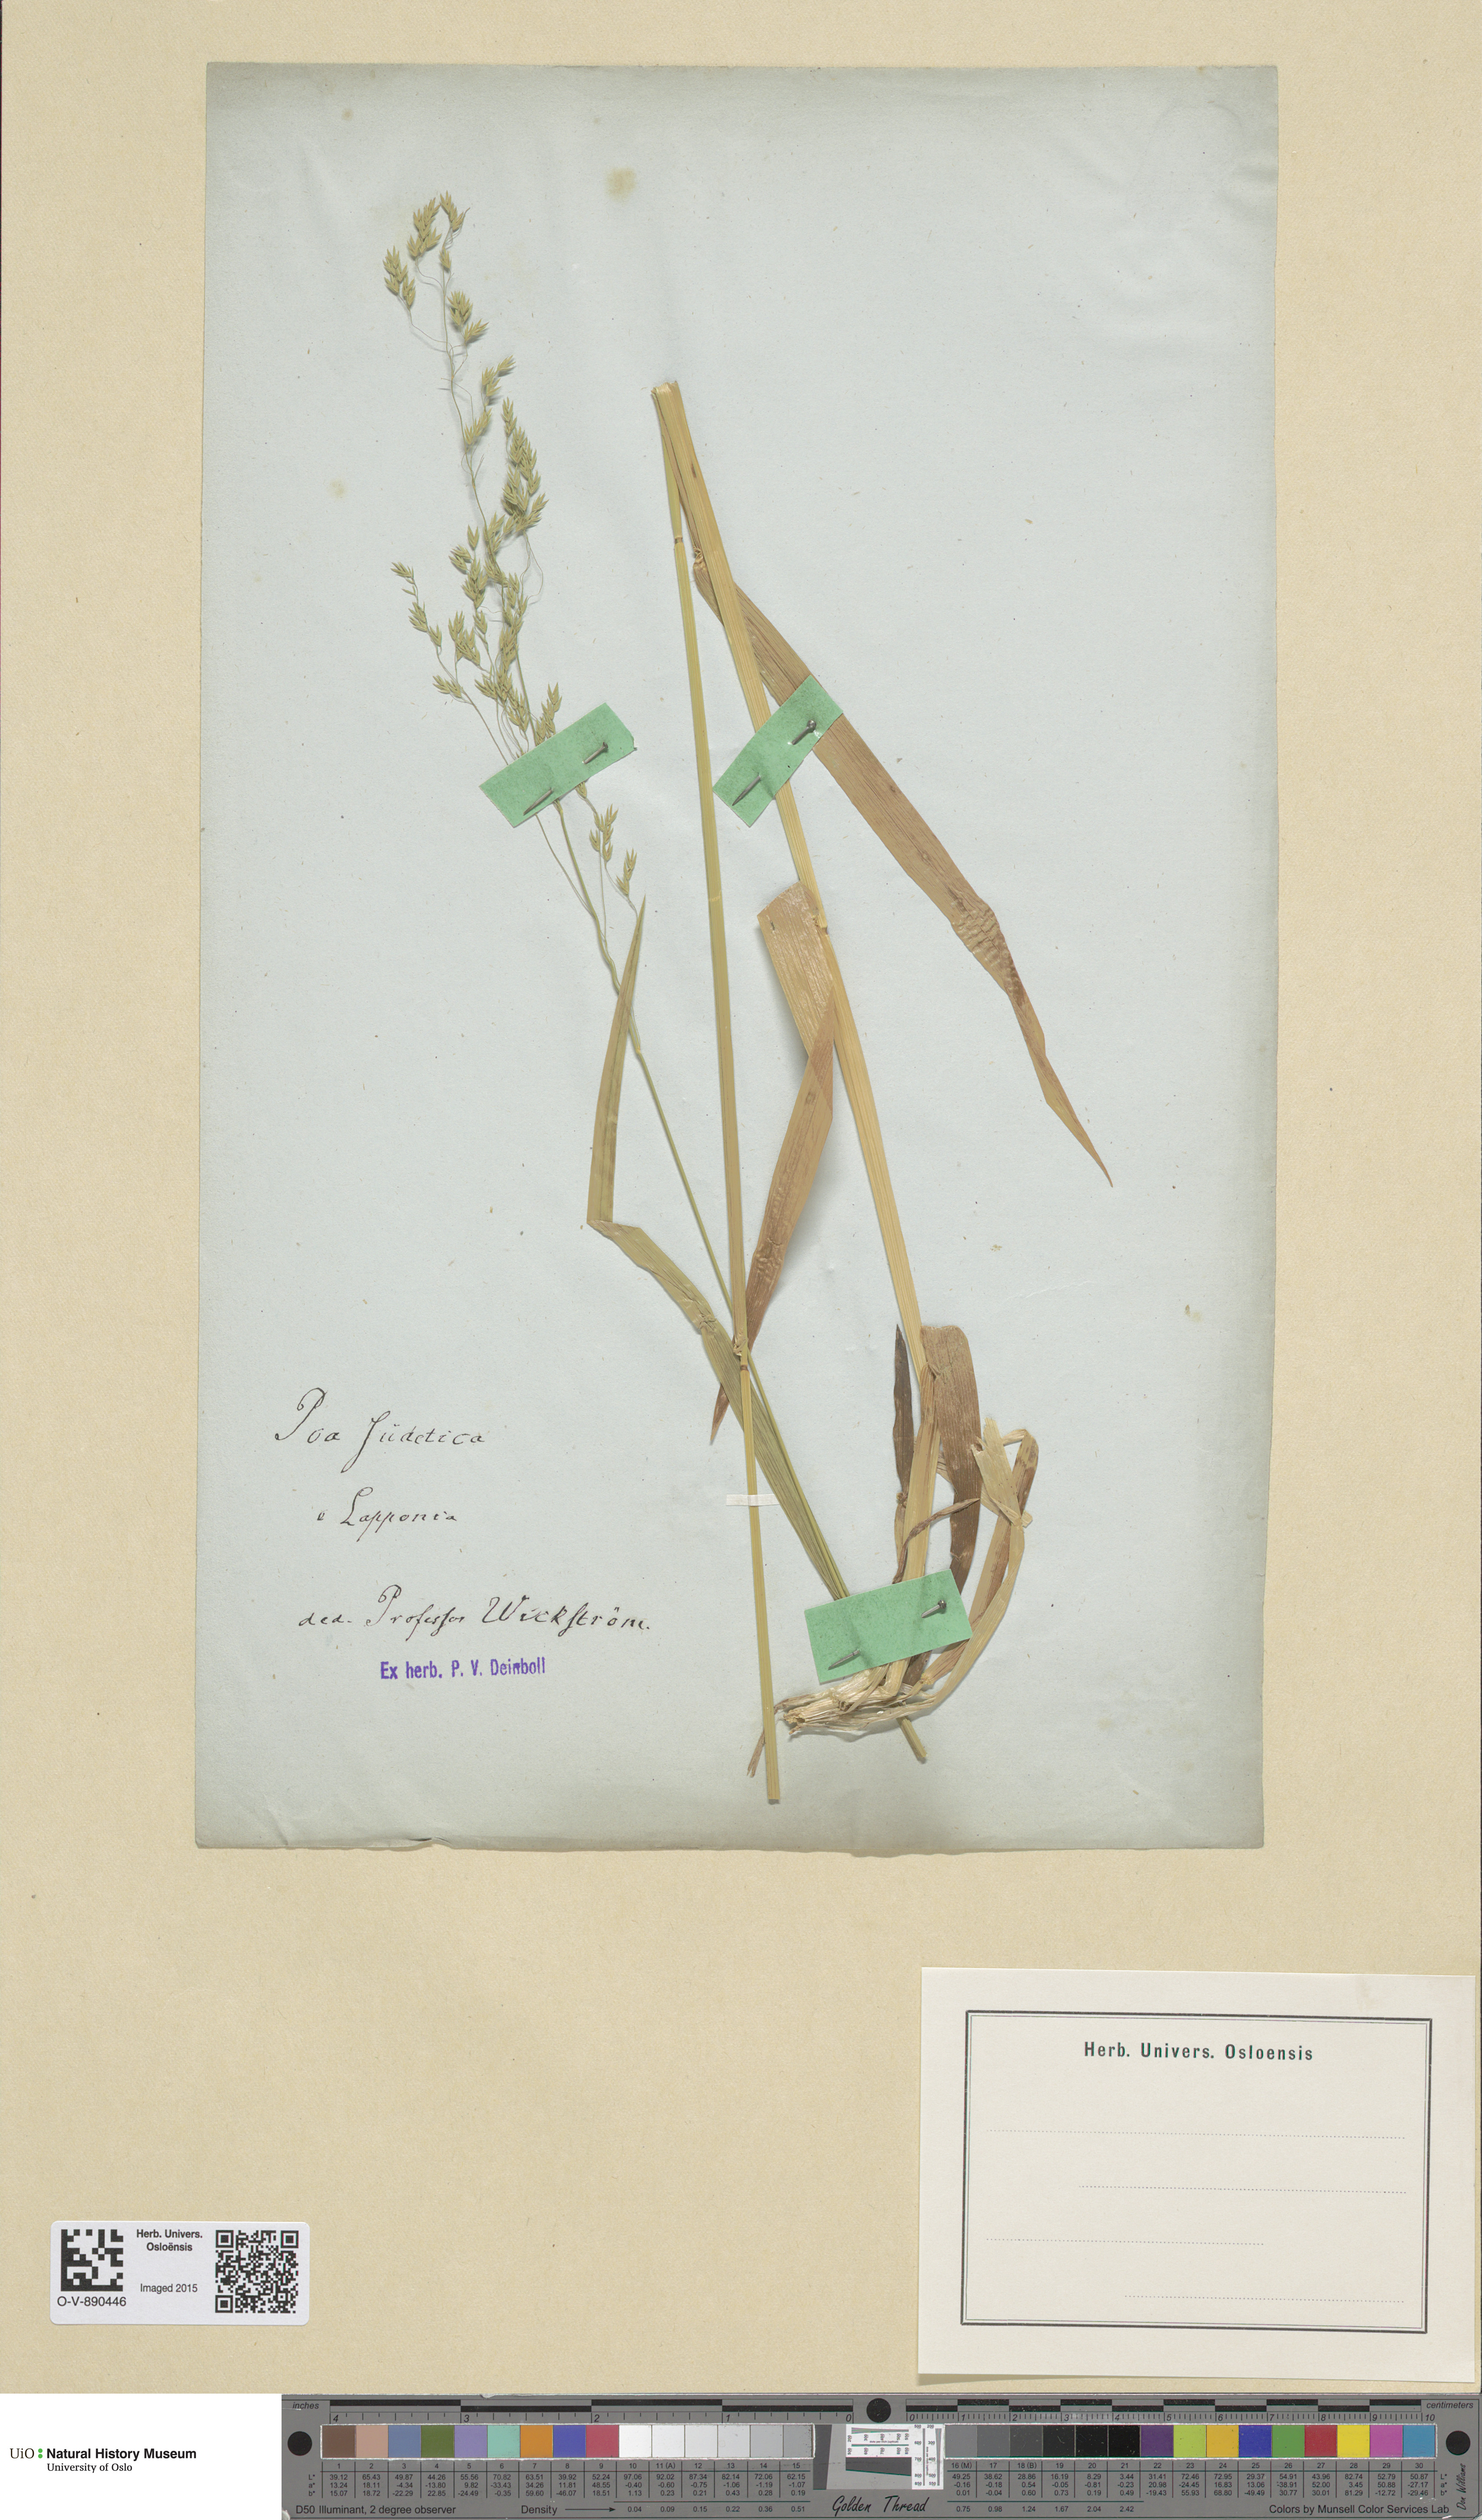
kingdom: Plantae
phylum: Tracheophyta
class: Liliopsida
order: Poales
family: Poaceae
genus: Poa
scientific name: Poa remota
